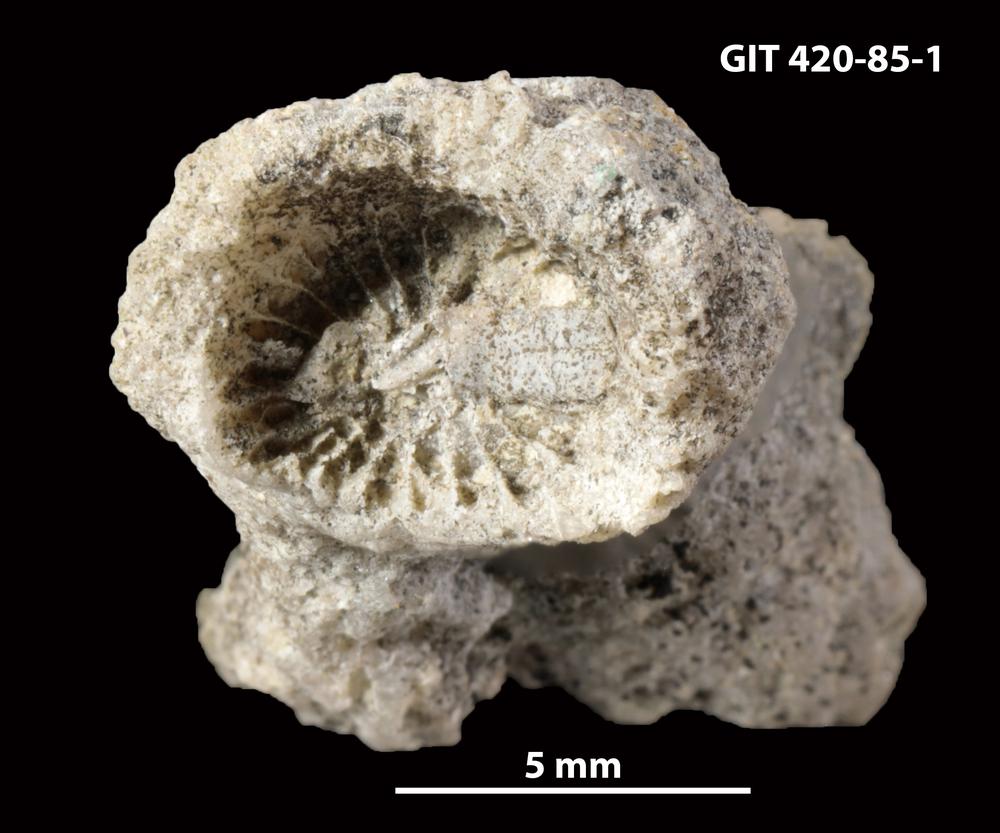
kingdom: Animalia
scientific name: Animalia
